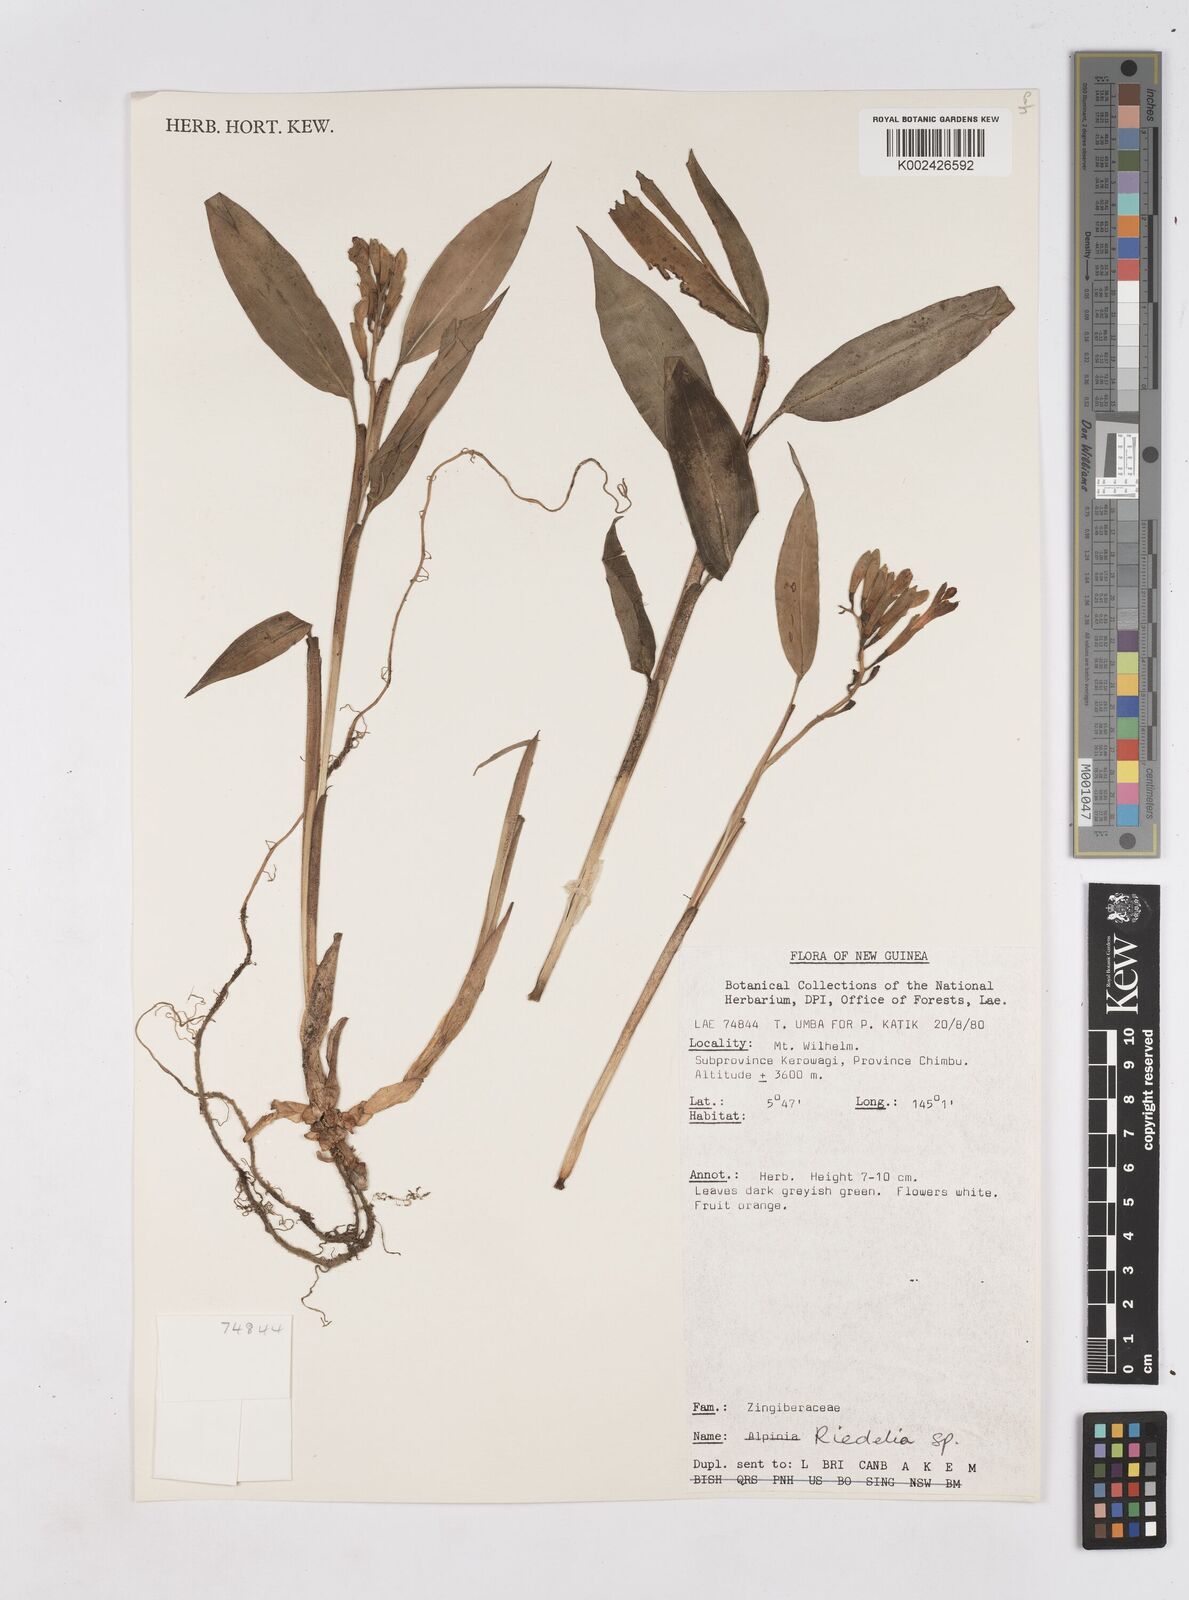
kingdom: Plantae
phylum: Tracheophyta
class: Liliopsida
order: Zingiberales
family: Zingiberaceae
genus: Riedelia
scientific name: Riedelia
